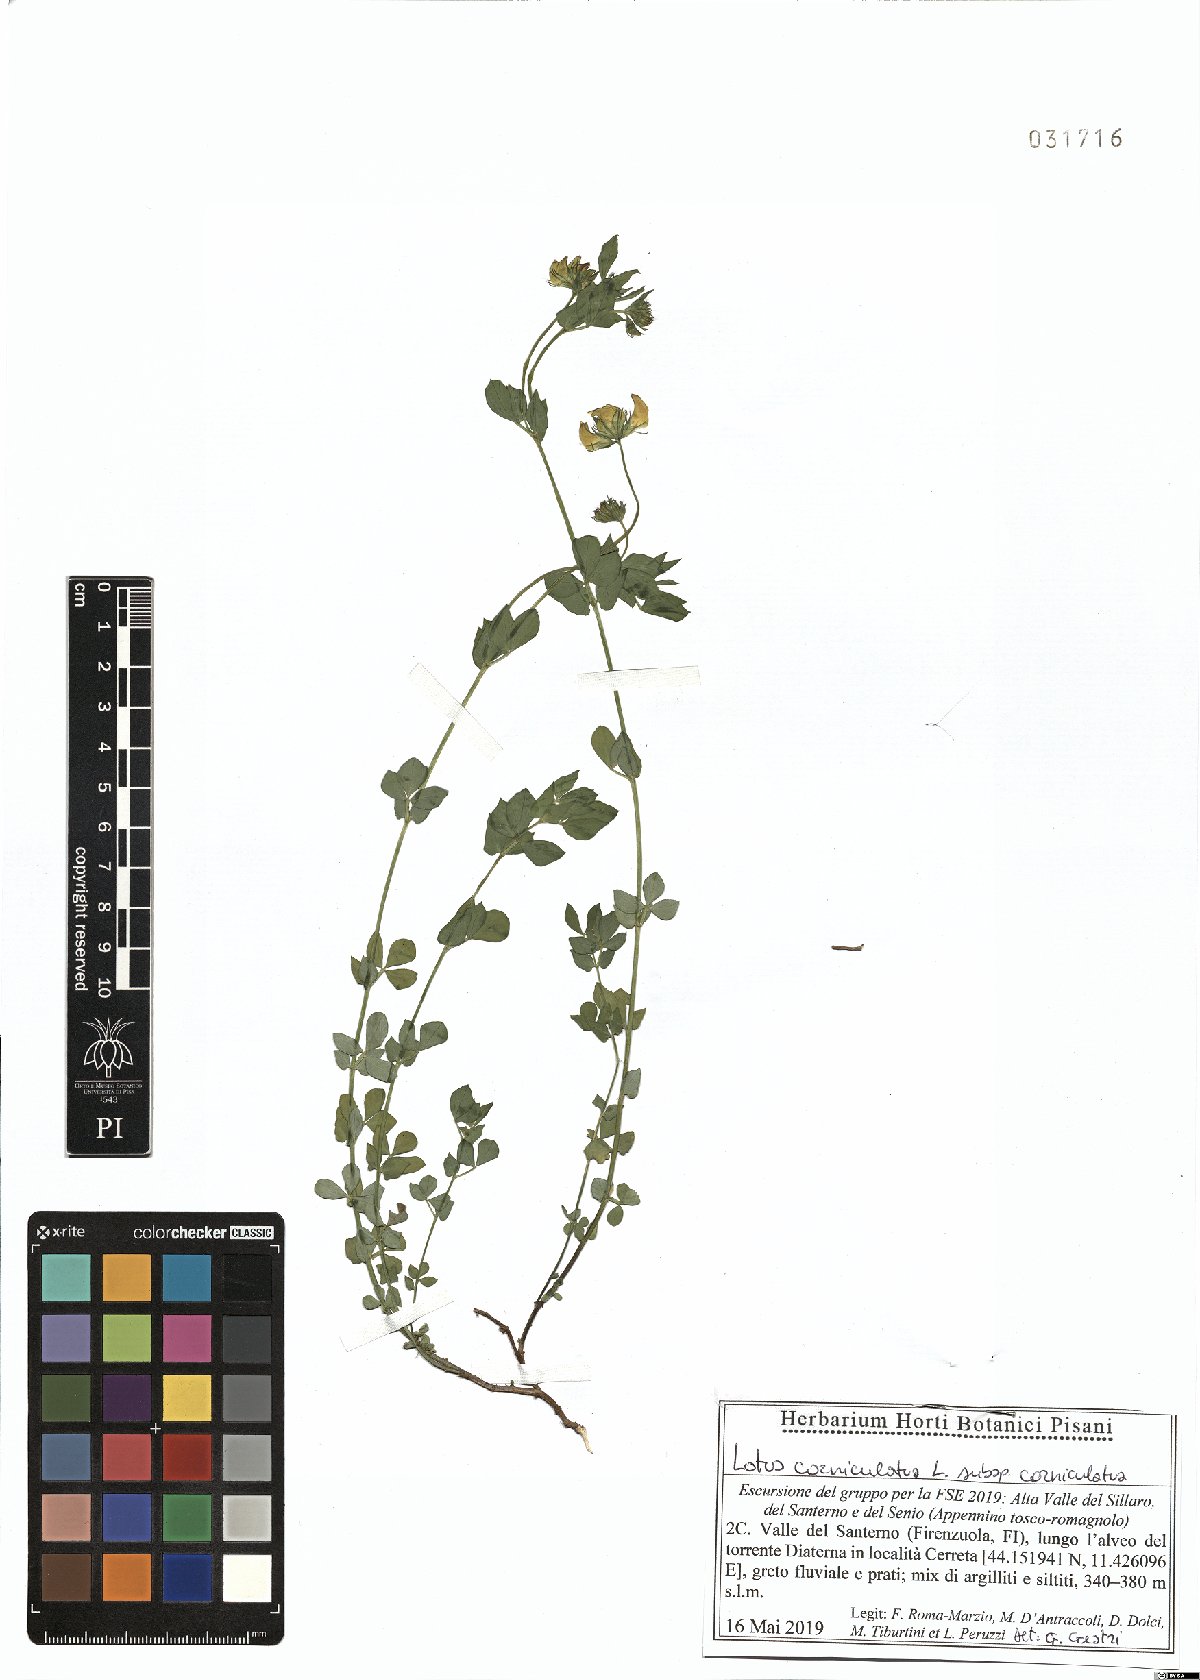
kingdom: Plantae
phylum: Tracheophyta
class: Magnoliopsida
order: Fabales
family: Fabaceae
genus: Lotus
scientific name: Lotus corniculatus
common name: Common bird's-foot-trefoil
